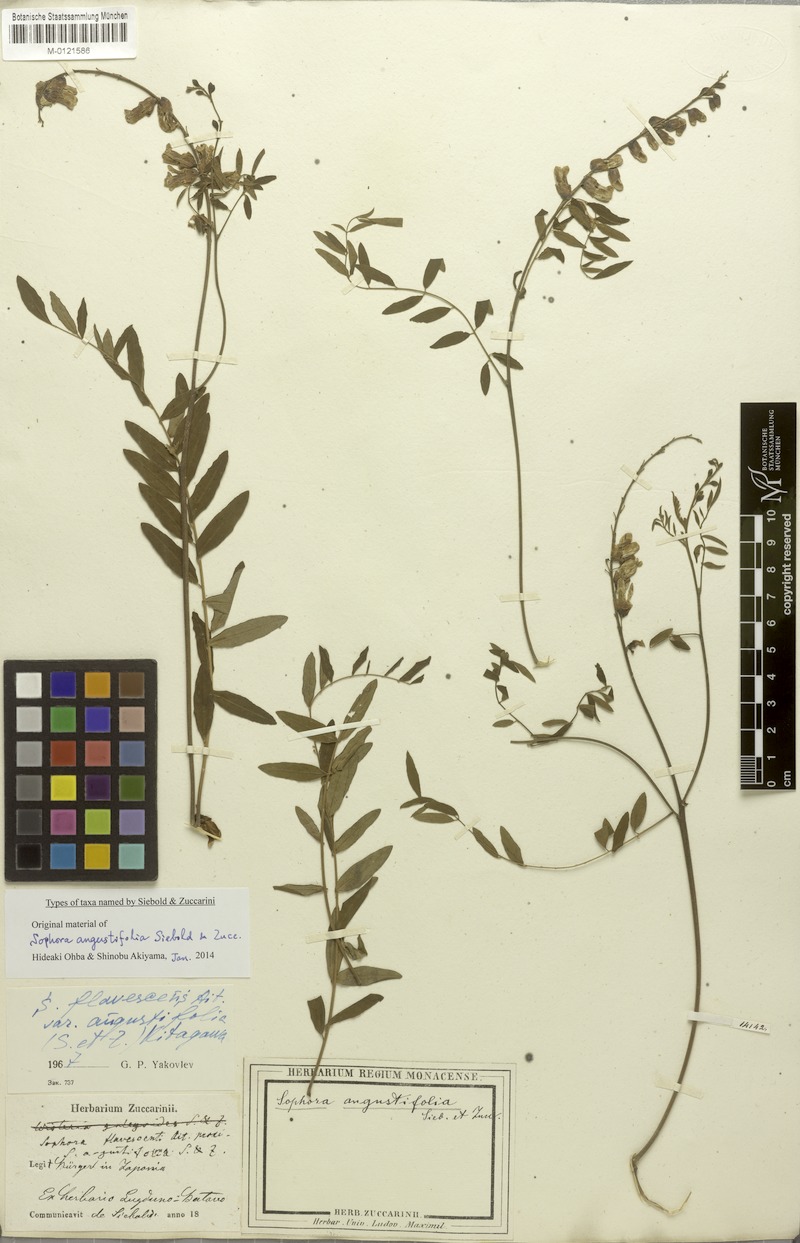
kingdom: Plantae
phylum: Tracheophyta
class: Magnoliopsida
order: Fabales
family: Fabaceae
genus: Sophora
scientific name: Sophora flavescens
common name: Shrubby sophora
